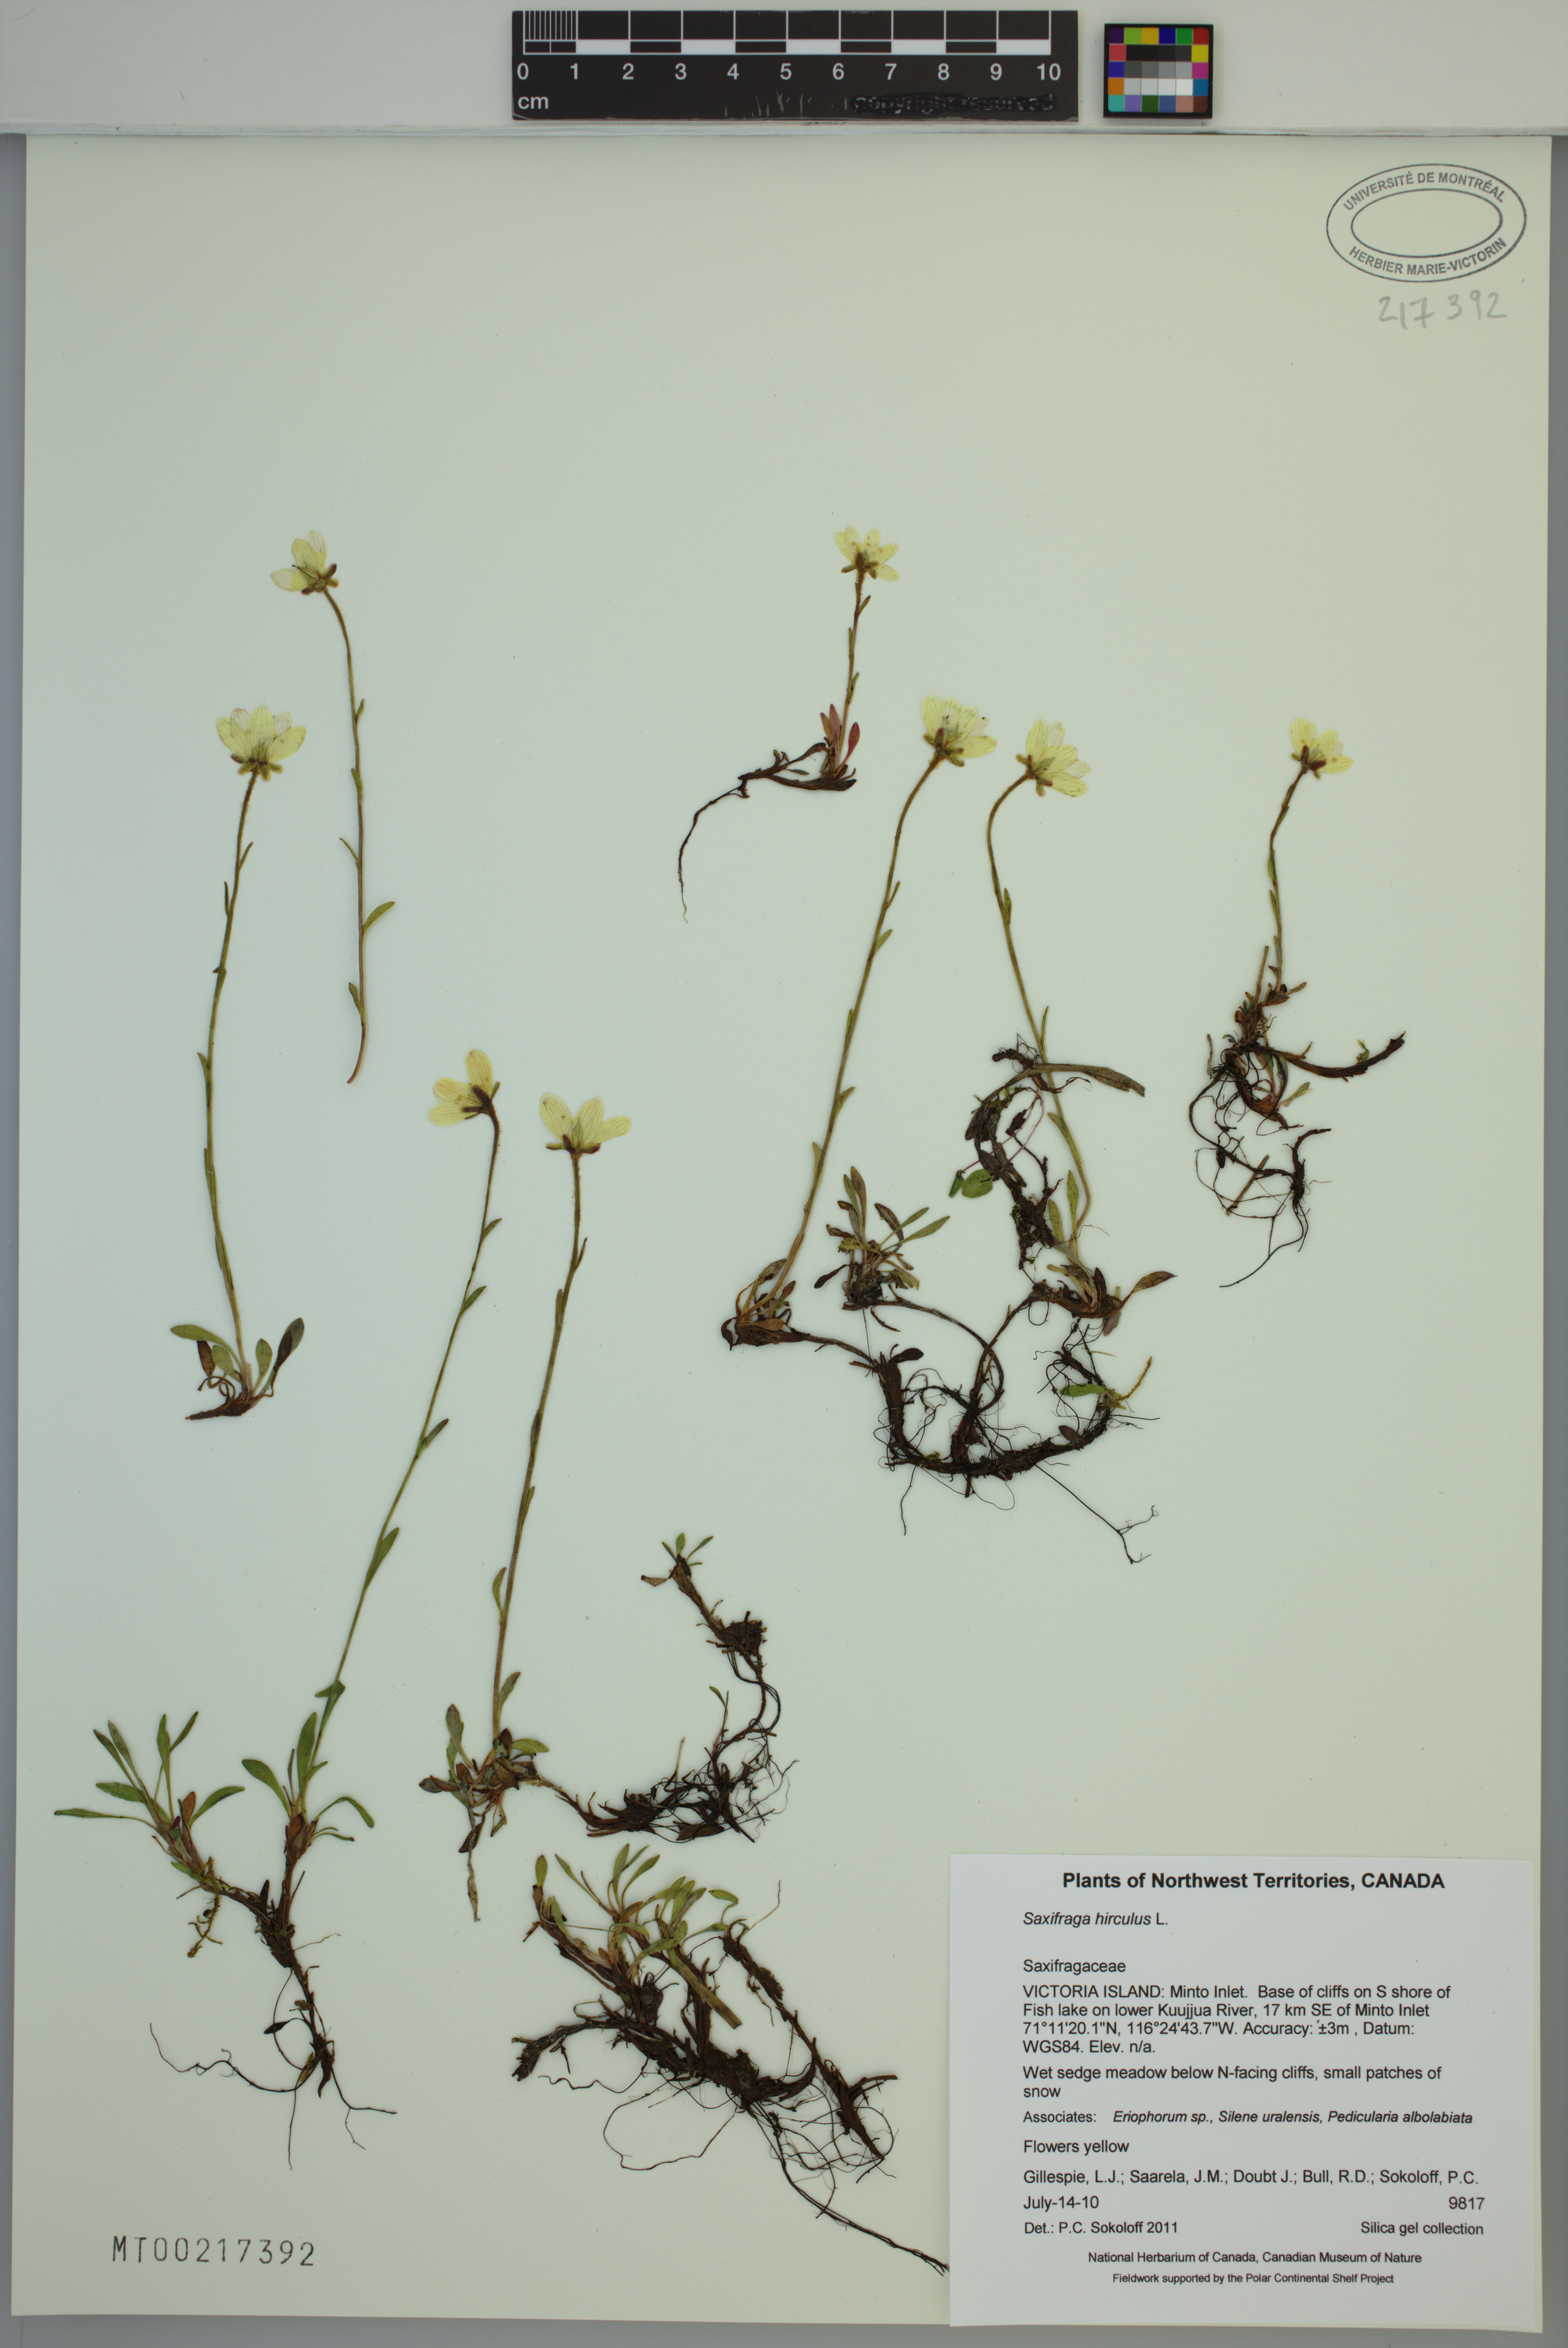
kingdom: Plantae
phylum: Tracheophyta
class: Magnoliopsida
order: Saxifragales
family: Saxifragaceae
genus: Saxifraga
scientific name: Saxifraga hirculus
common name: Yellow marsh saxifrage
